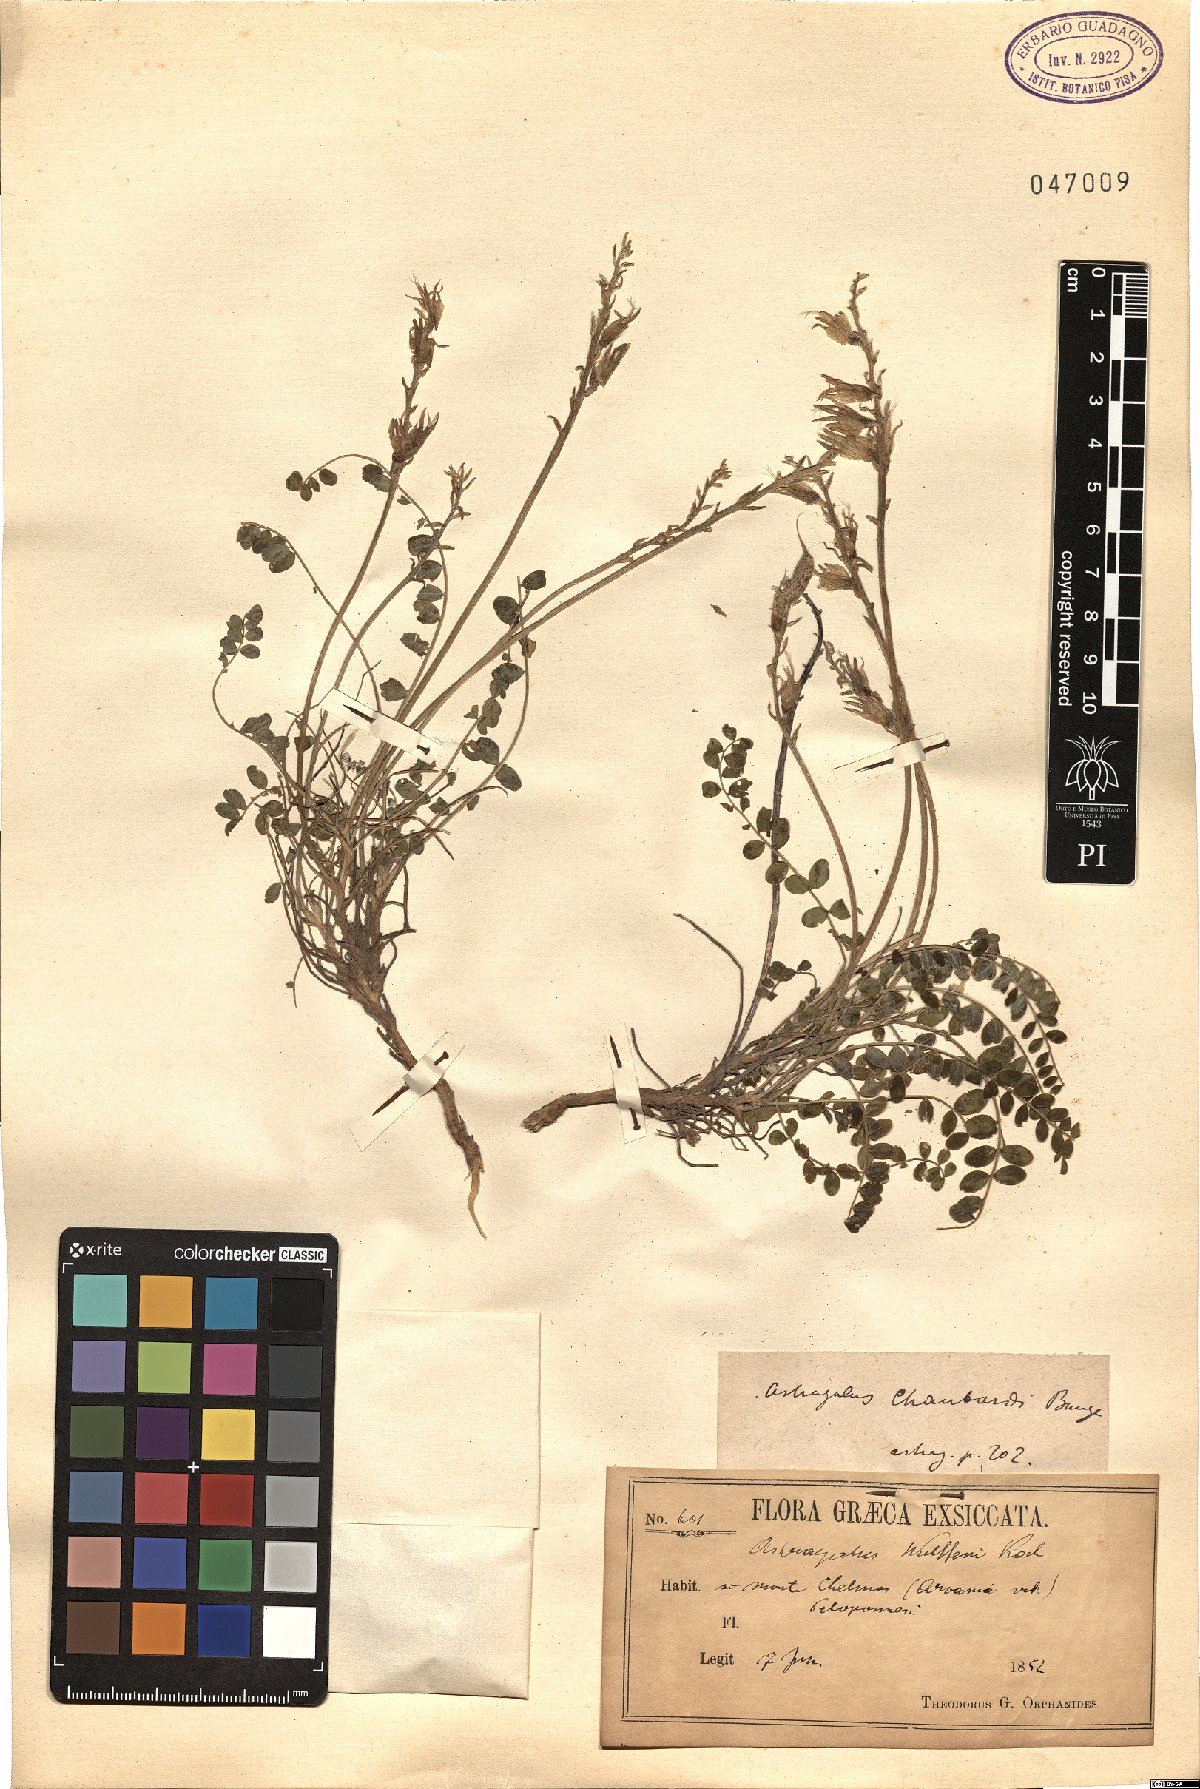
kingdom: Plantae
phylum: Tracheophyta
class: Magnoliopsida
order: Fabales
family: Fabaceae
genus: Astragalus
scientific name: Astragalus monspessulanus
